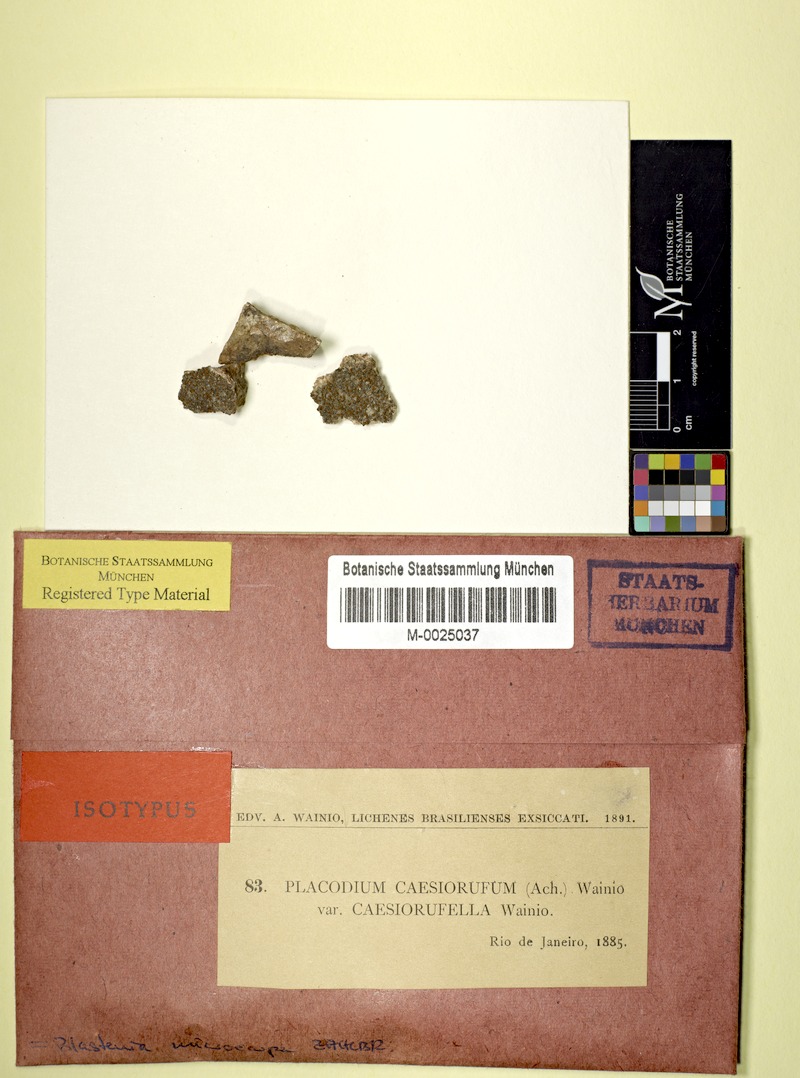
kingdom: Fungi
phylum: Ascomycota
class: Lecanoromycetes
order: Teloschistales
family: Teloschistaceae
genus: Variospora
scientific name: Variospora macrocarpa
